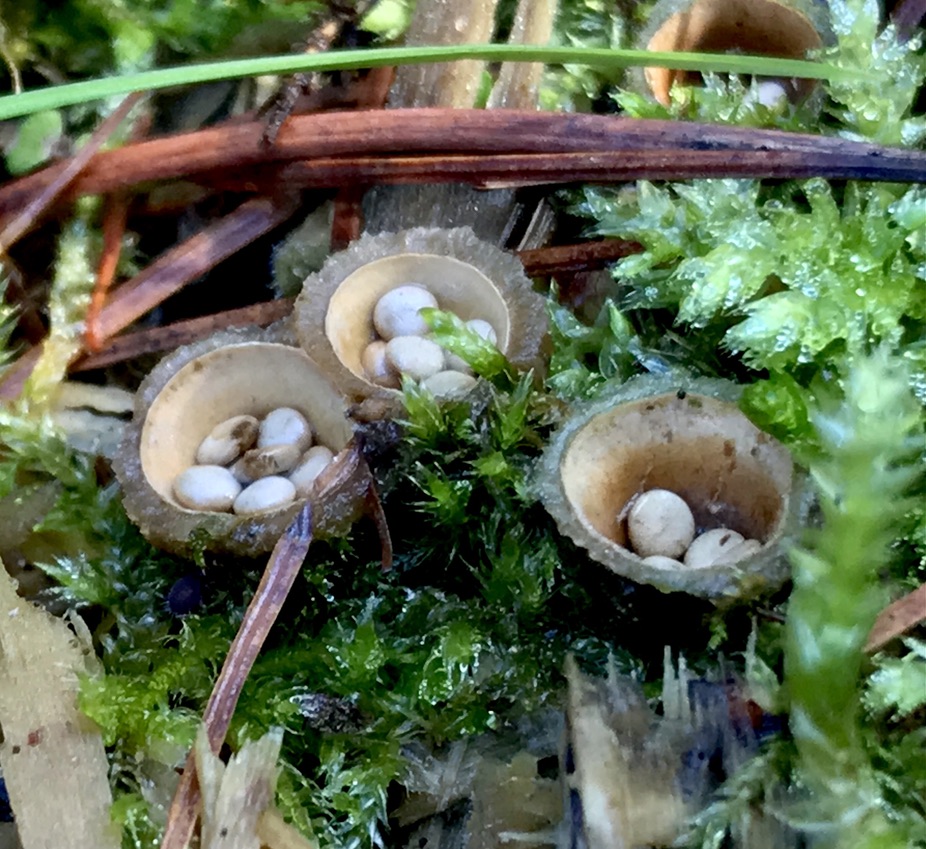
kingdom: Fungi
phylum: Basidiomycota
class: Agaricomycetes
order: Agaricales
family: Nidulariaceae
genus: Crucibulum
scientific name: Crucibulum crucibuliforme
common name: krukkesvamp
